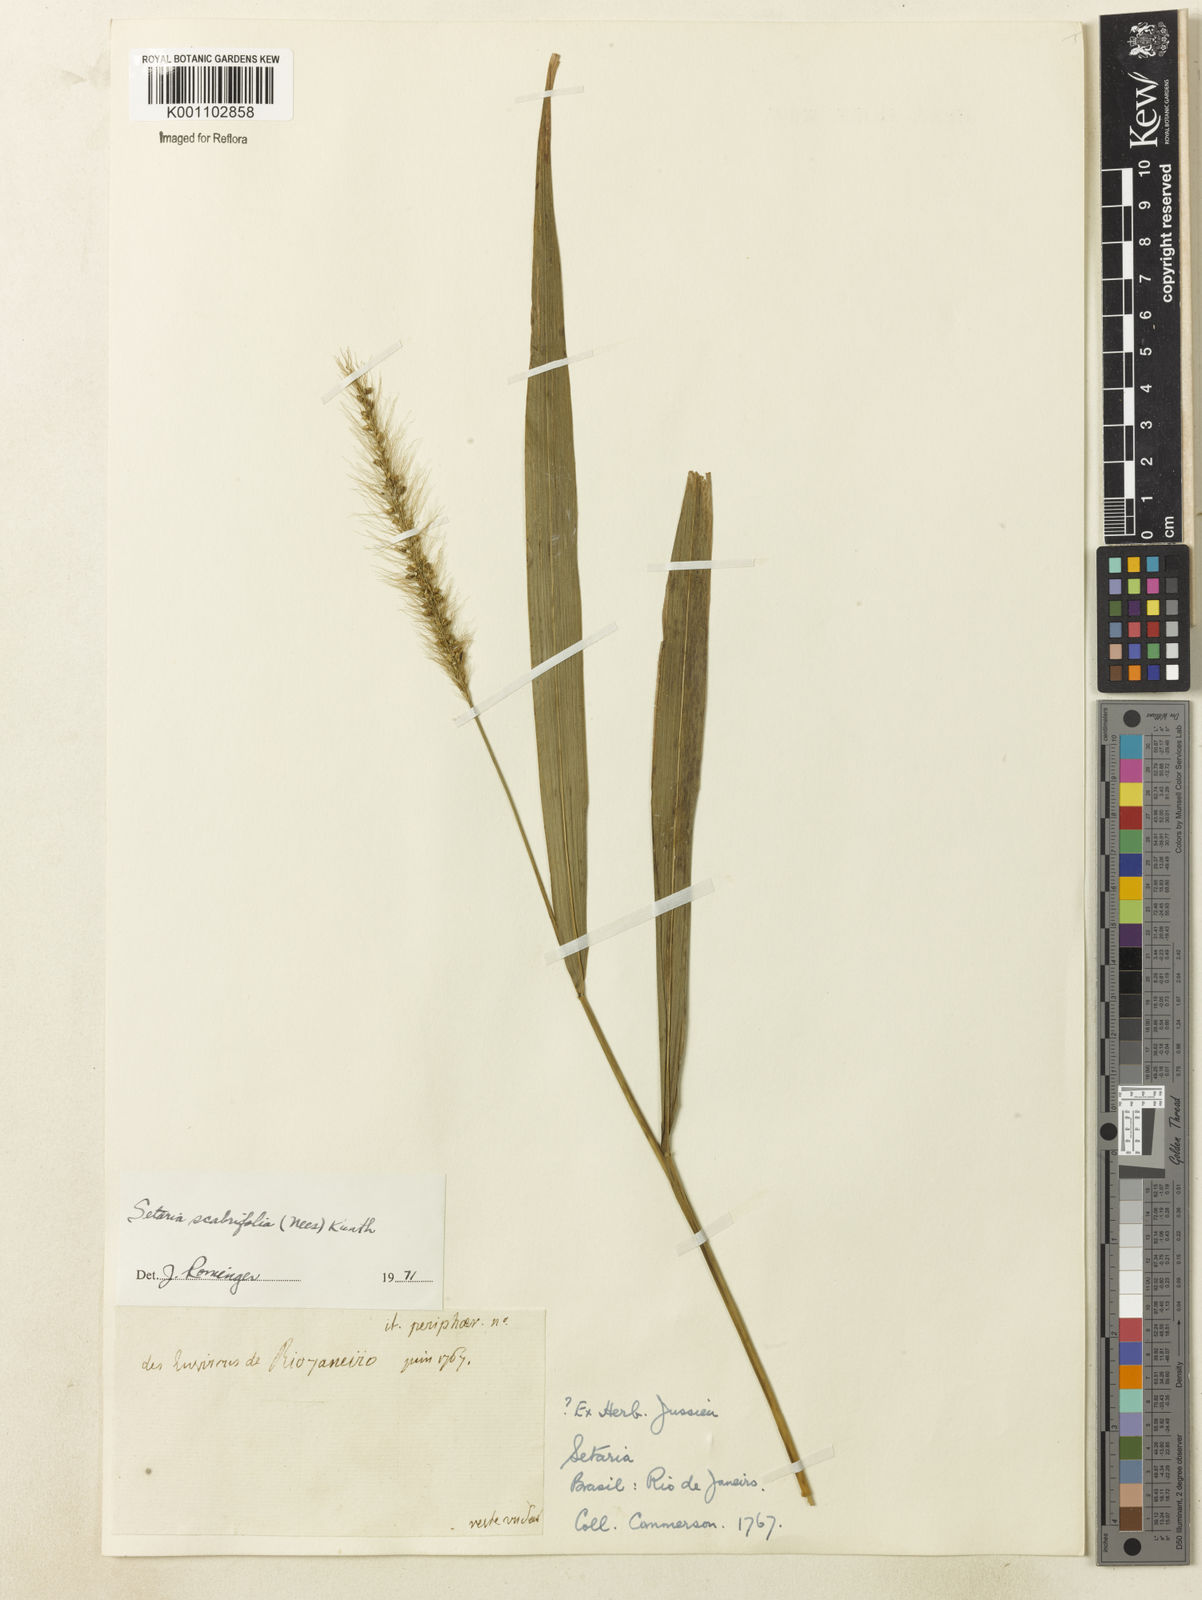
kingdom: Plantae
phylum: Tracheophyta
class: Liliopsida
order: Poales
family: Poaceae
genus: Setaria
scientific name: Setaria scabrifolia
